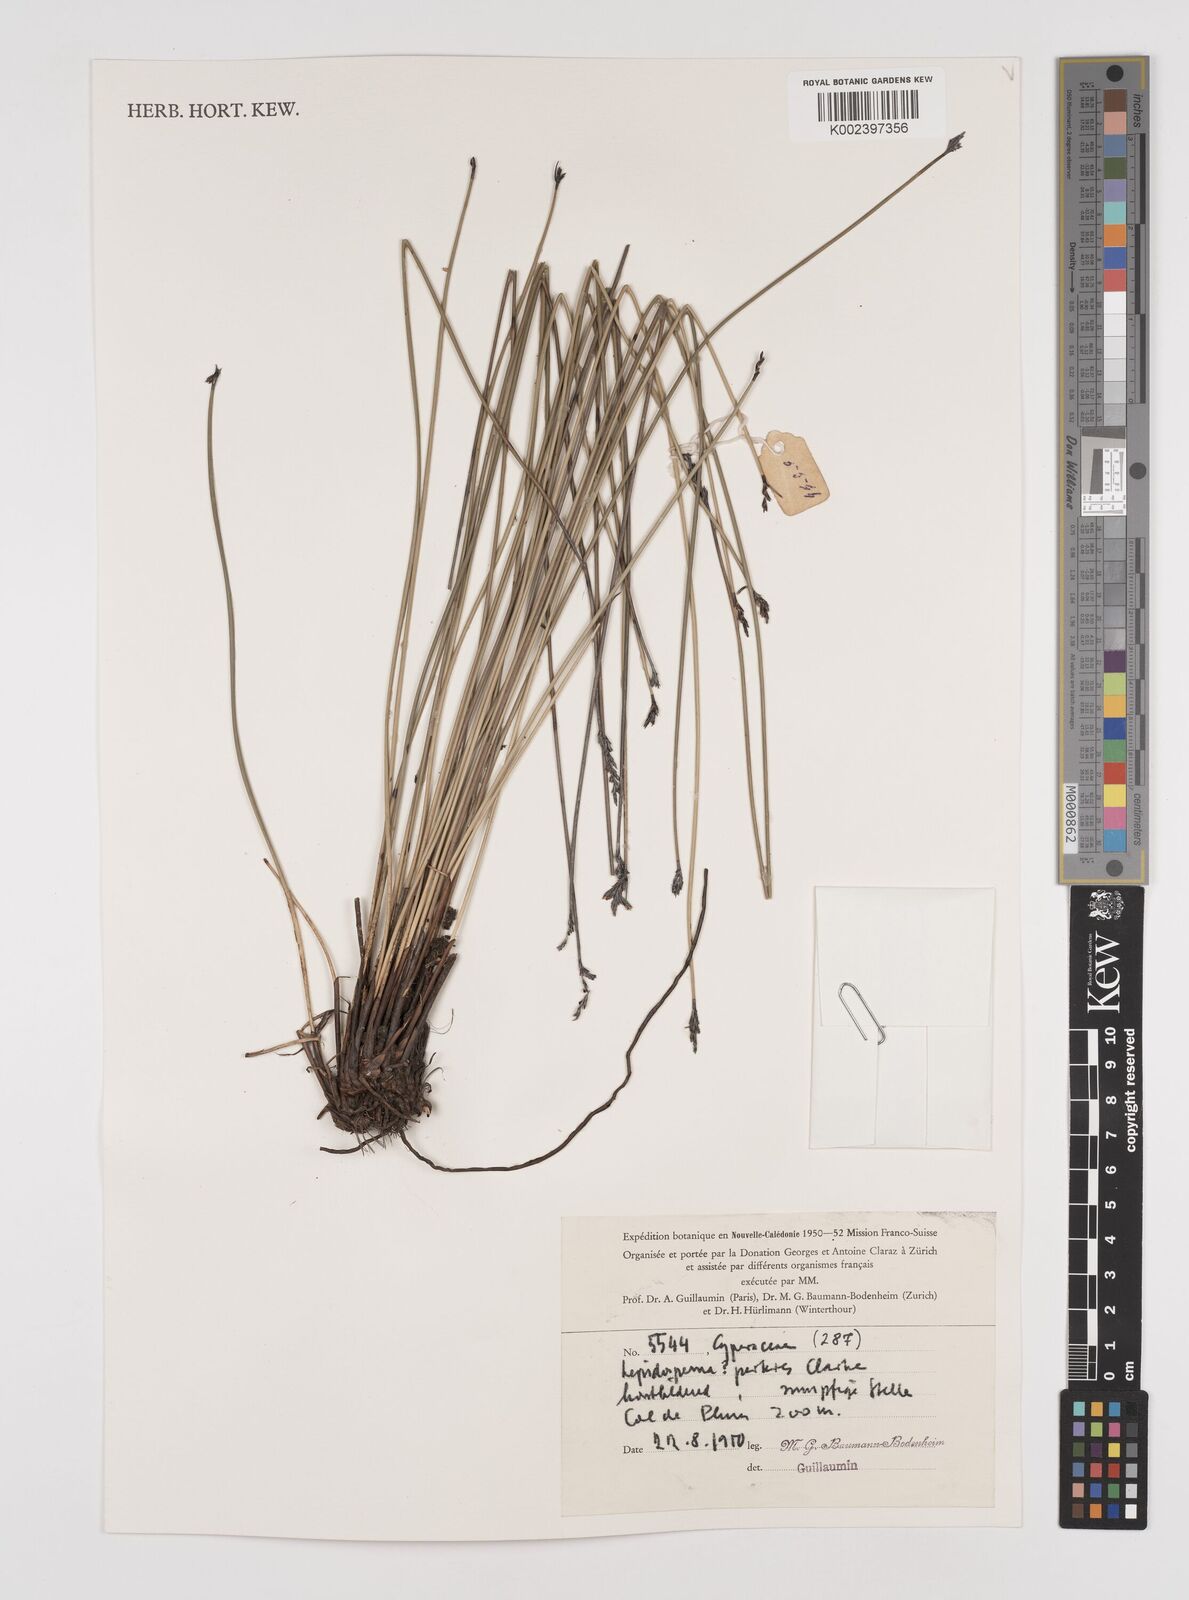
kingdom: Plantae
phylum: Tracheophyta
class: Liliopsida
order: Poales
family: Cyperaceae
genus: Lepidosperma
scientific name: Lepidosperma perteres
